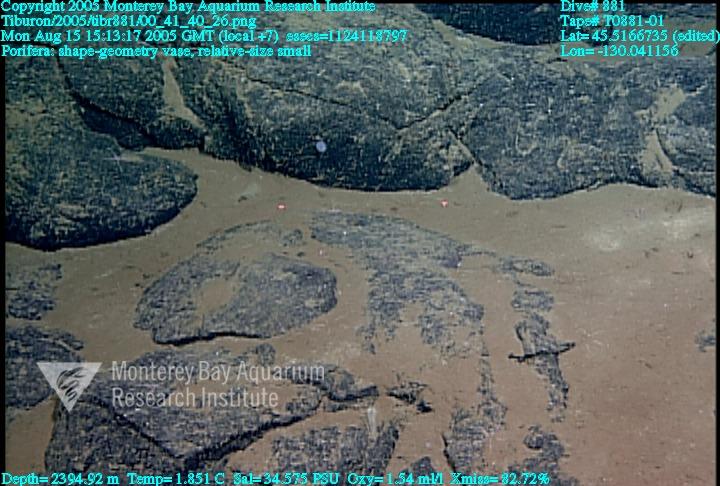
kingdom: Animalia
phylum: Porifera
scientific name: Porifera
